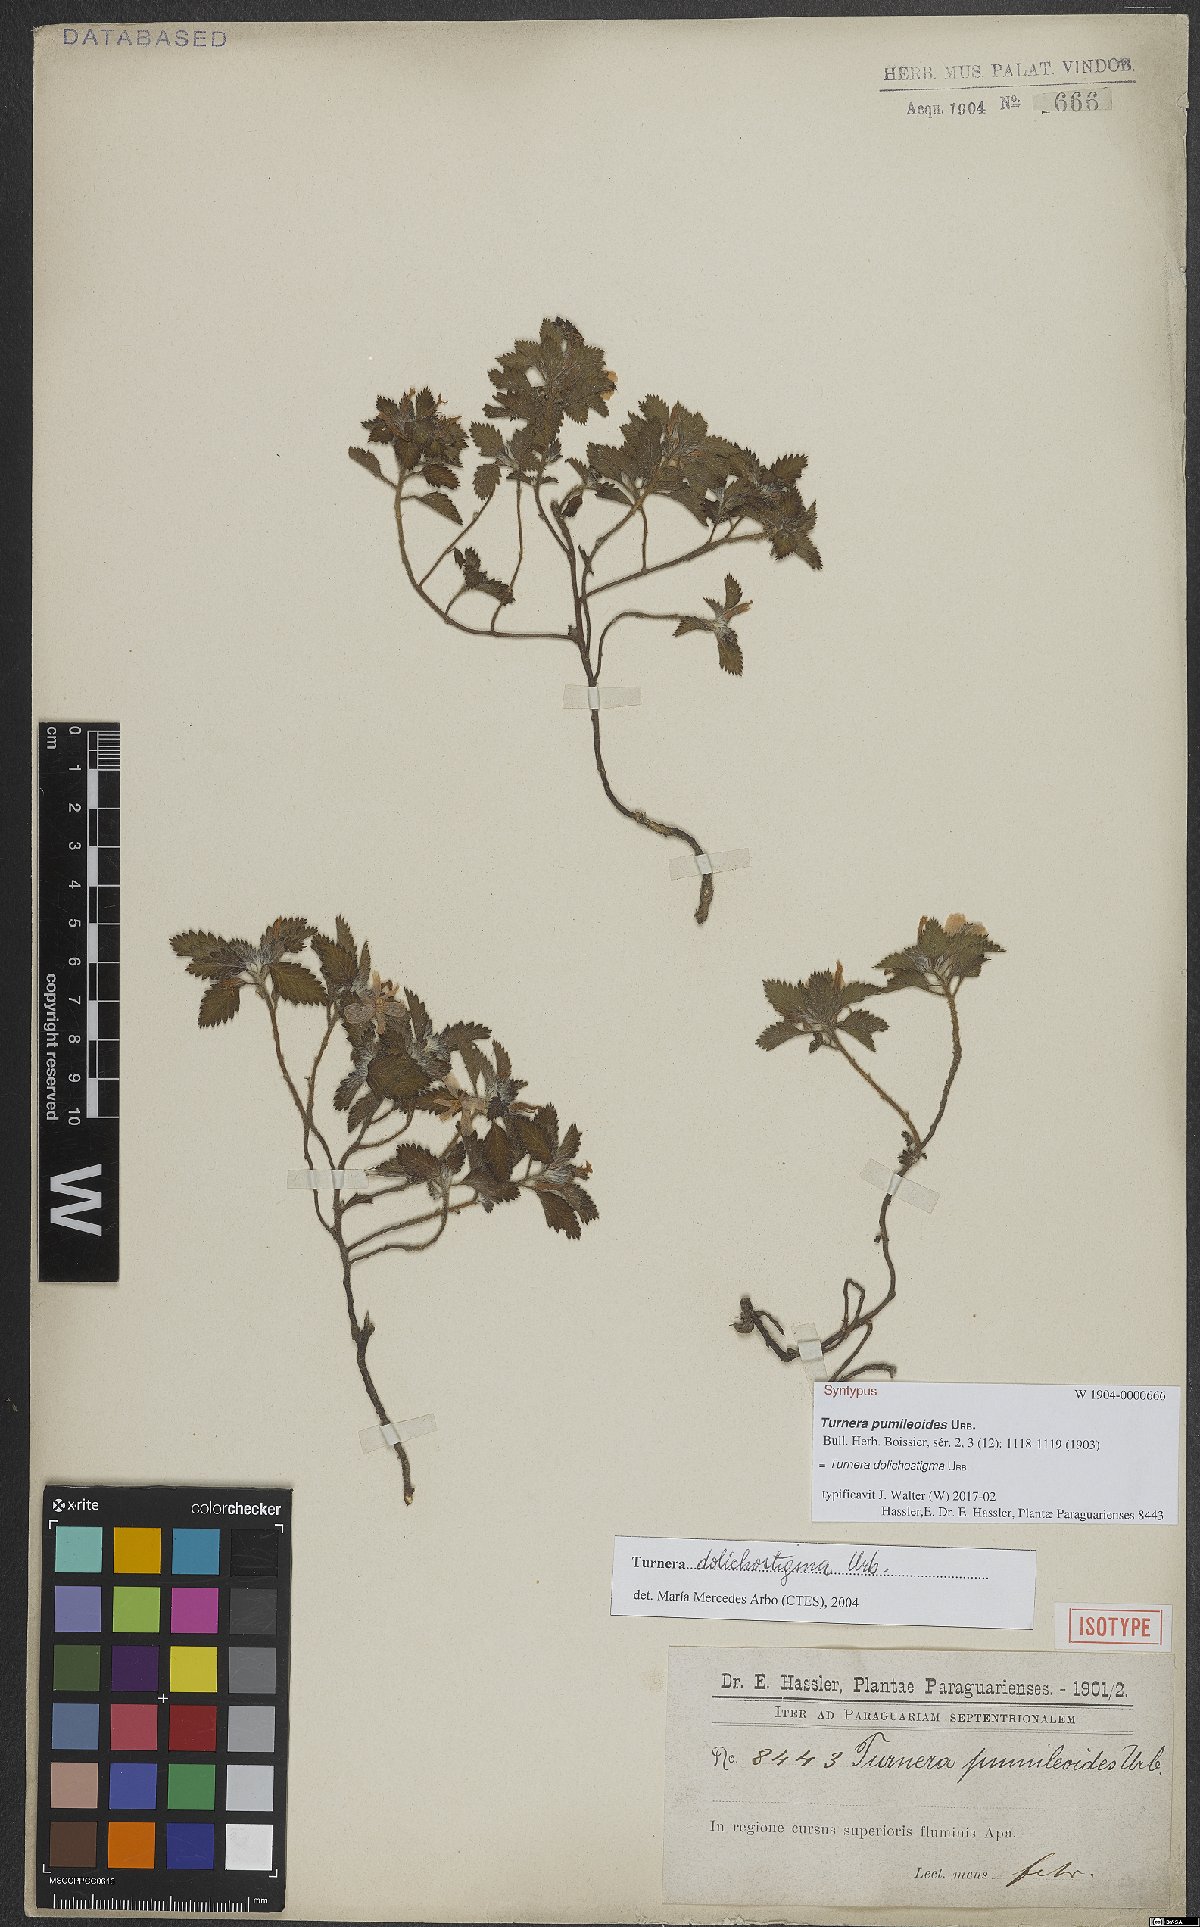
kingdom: Plantae
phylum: Tracheophyta
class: Magnoliopsida
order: Malpighiales
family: Turneraceae
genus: Turnera
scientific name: Turnera dolichostigma
